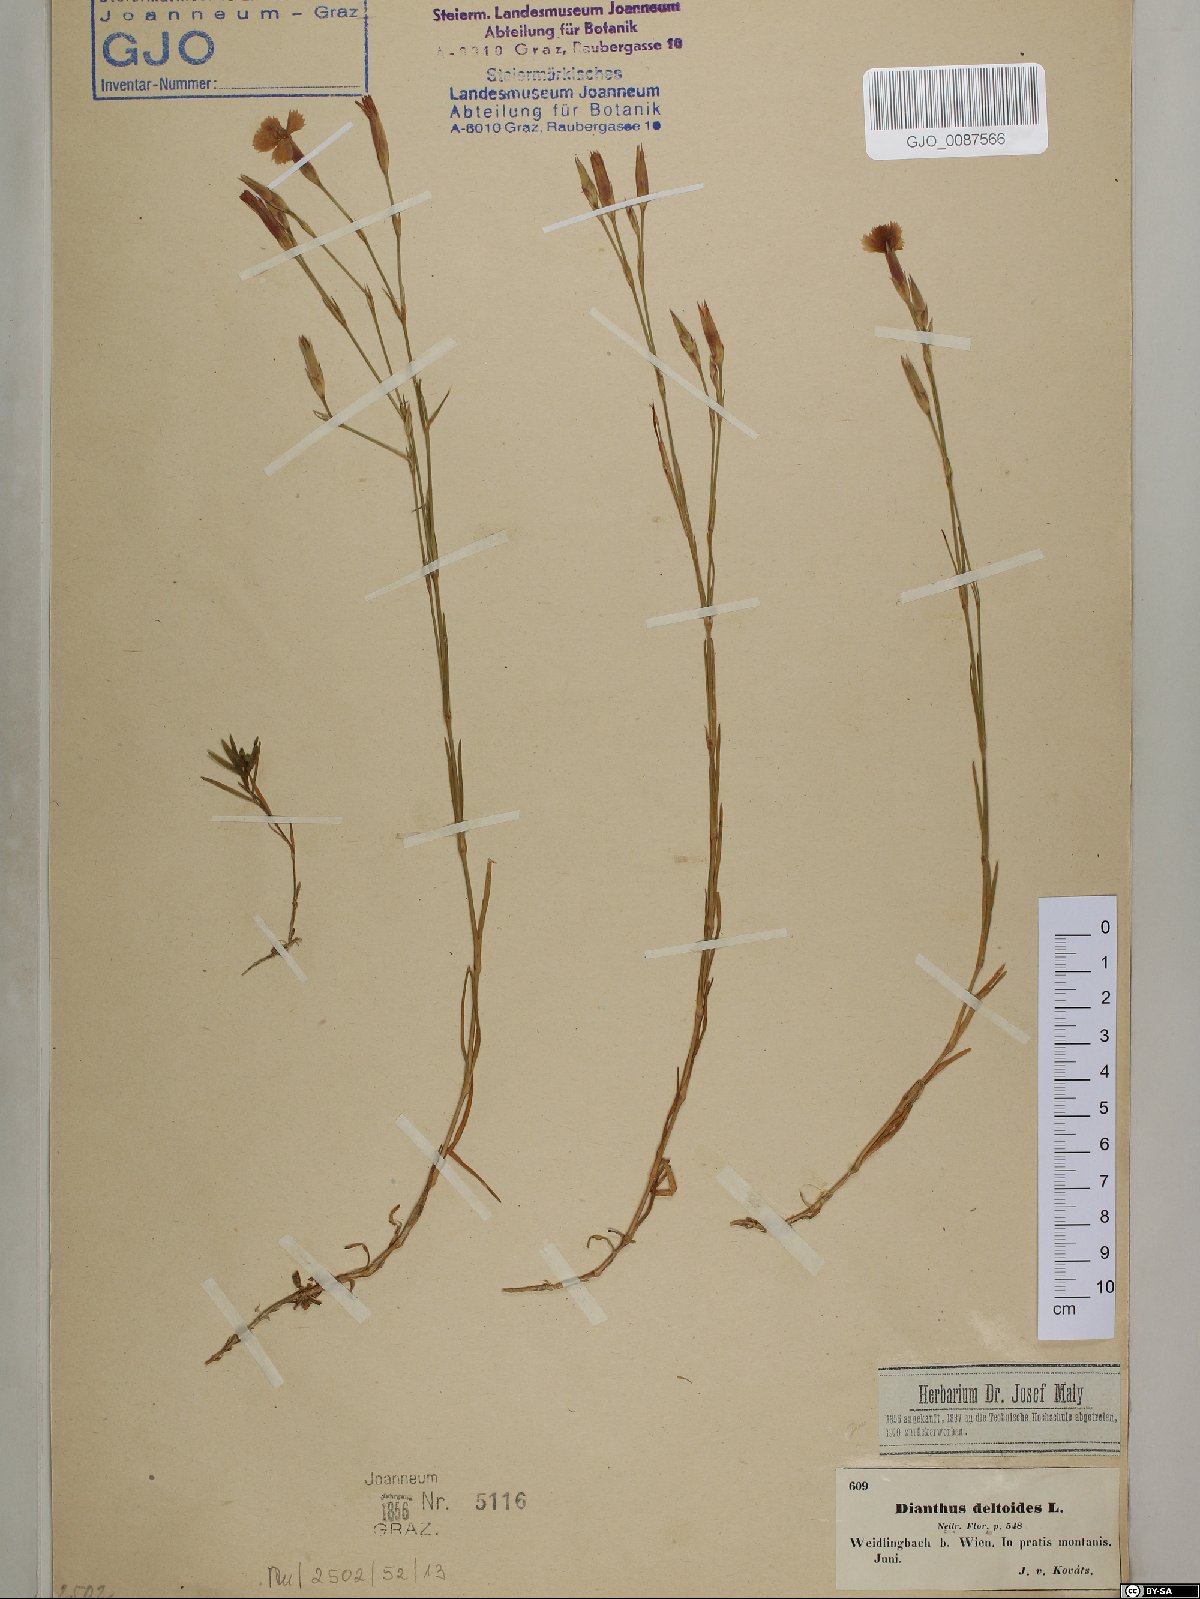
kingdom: Plantae
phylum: Tracheophyta
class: Magnoliopsida
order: Caryophyllales
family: Caryophyllaceae
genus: Dianthus
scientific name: Dianthus deltoides
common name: Maiden pink
